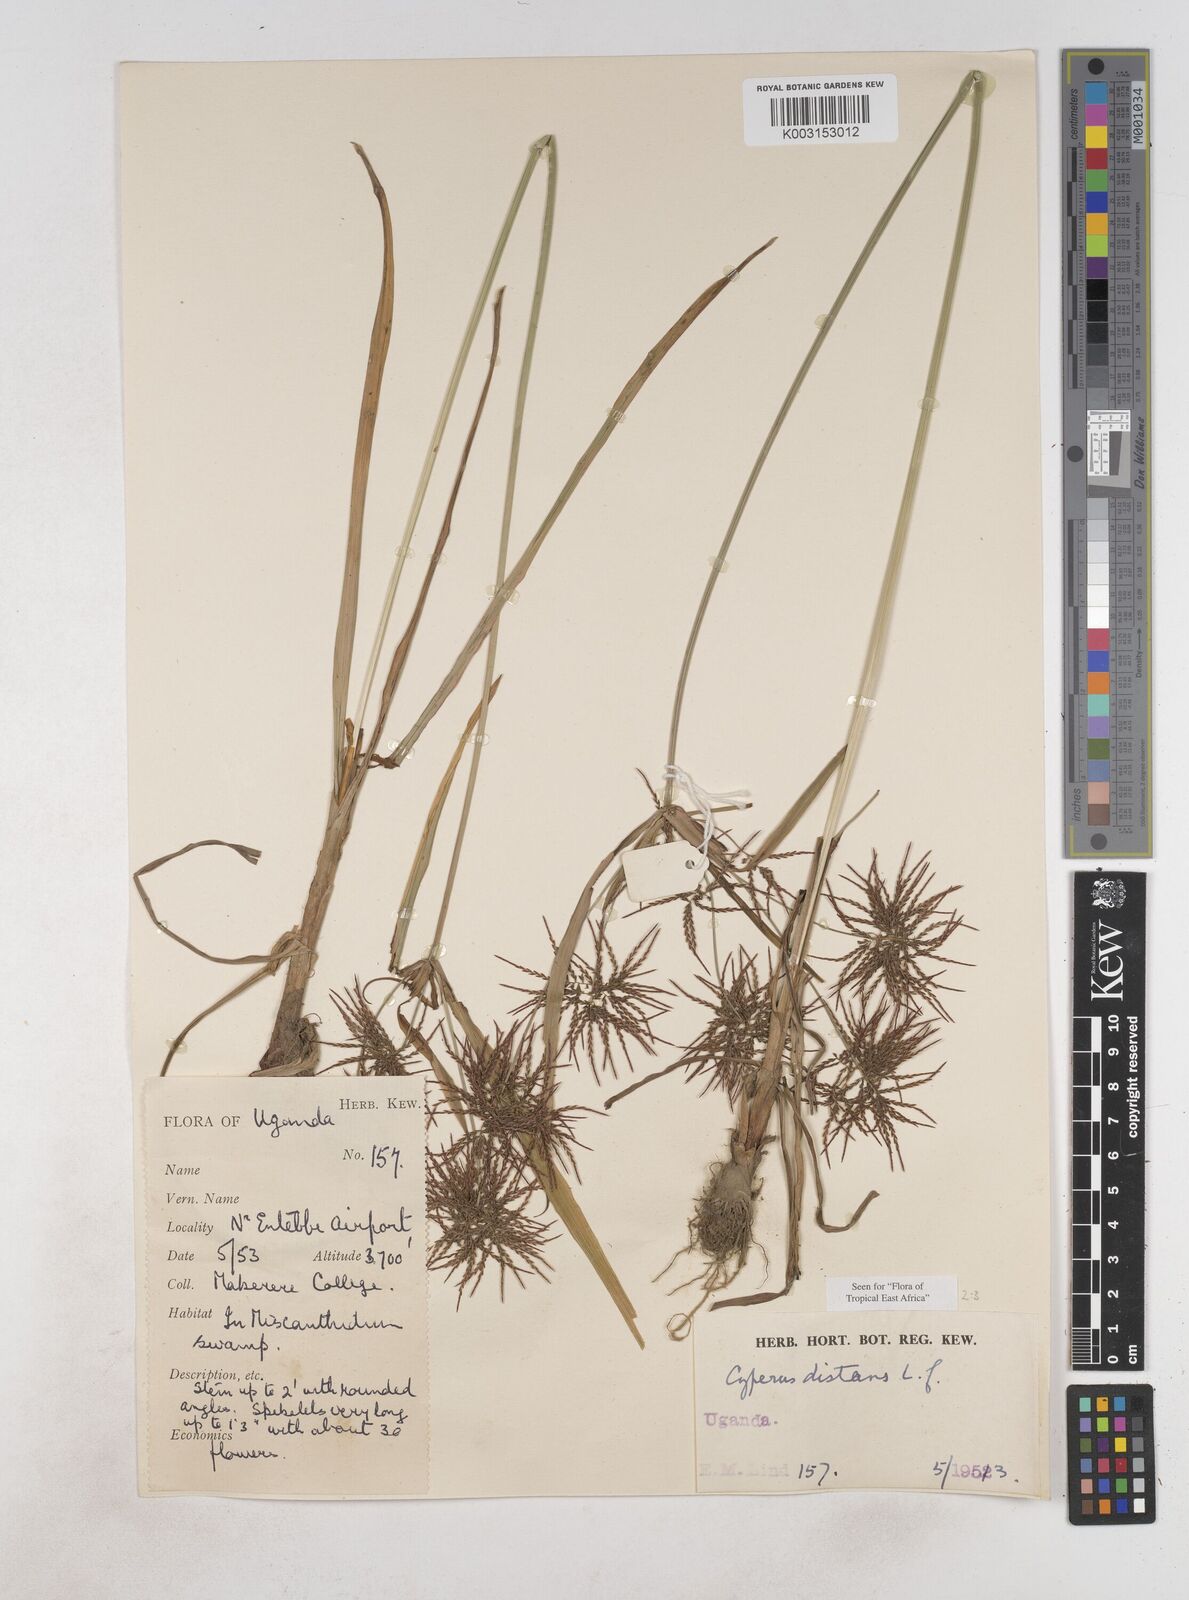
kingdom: Plantae
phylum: Tracheophyta
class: Liliopsida
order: Poales
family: Cyperaceae
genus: Cyperus
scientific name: Cyperus distans
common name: Slender cyperus
